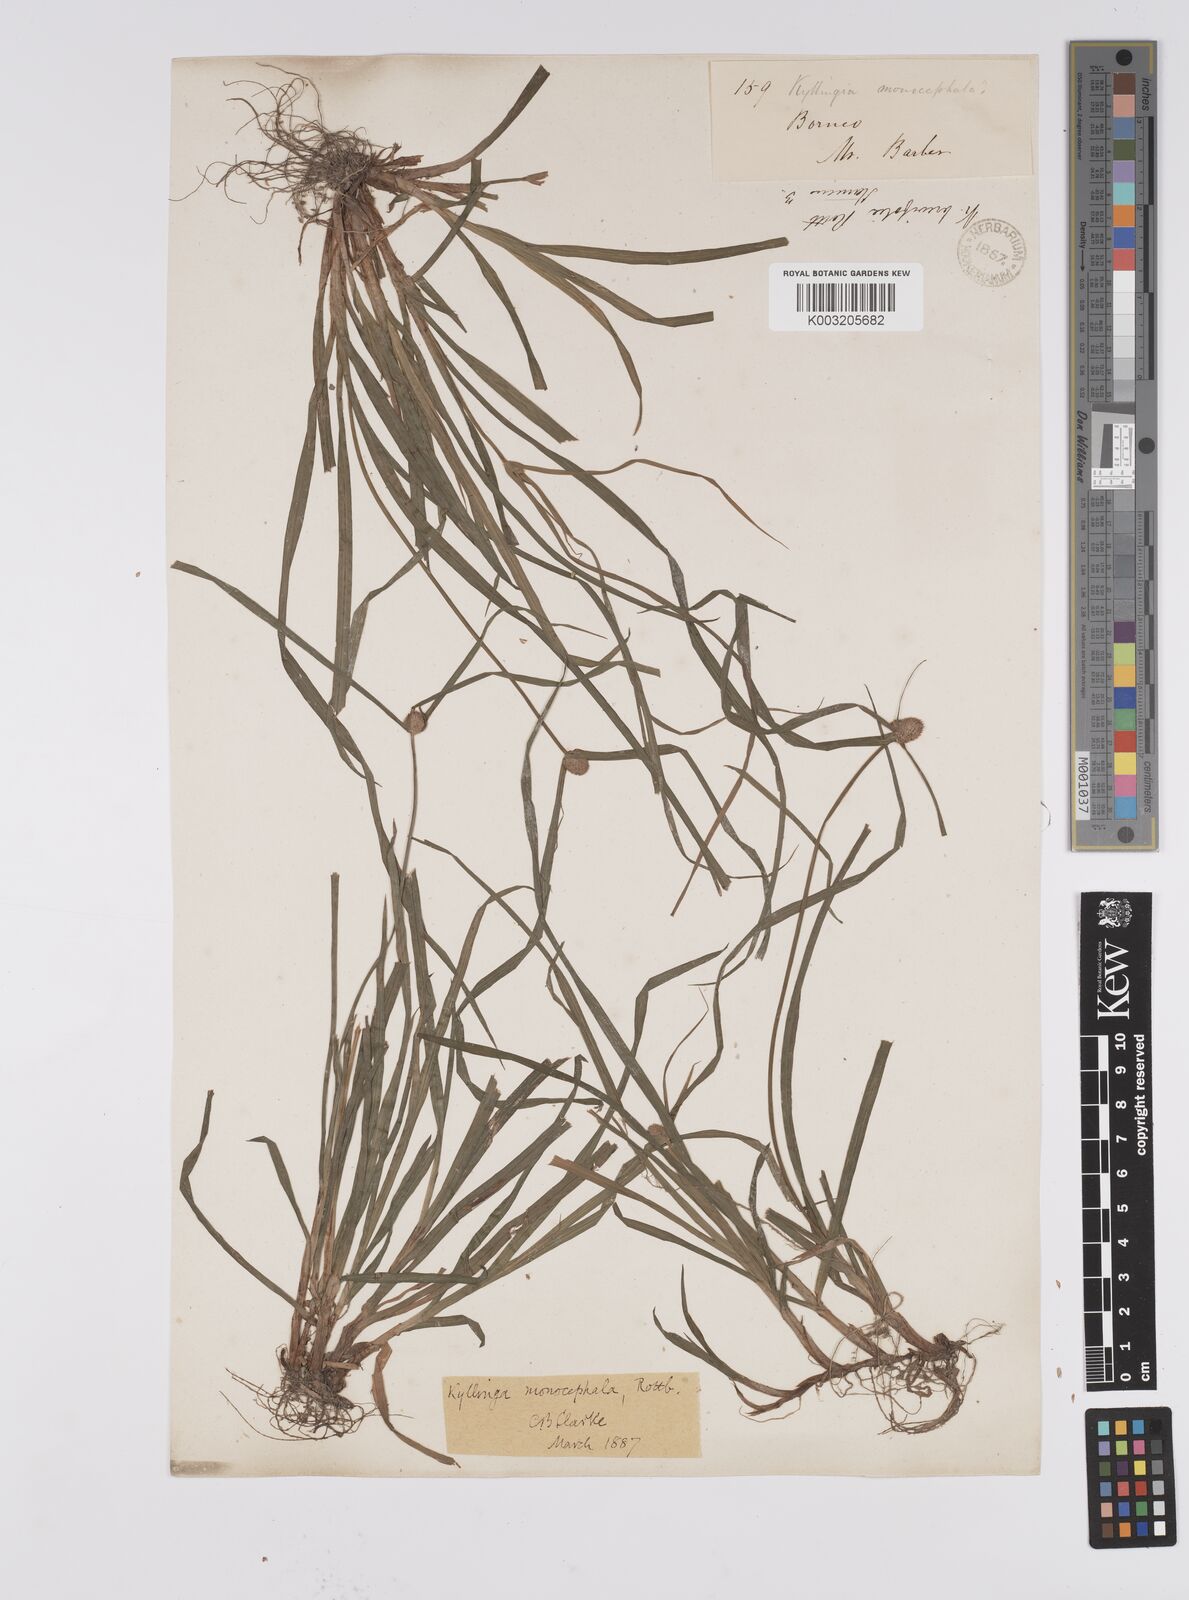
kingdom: Plantae
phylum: Tracheophyta
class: Liliopsida
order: Poales
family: Cyperaceae
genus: Cyperus
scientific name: Cyperus nemoralis
